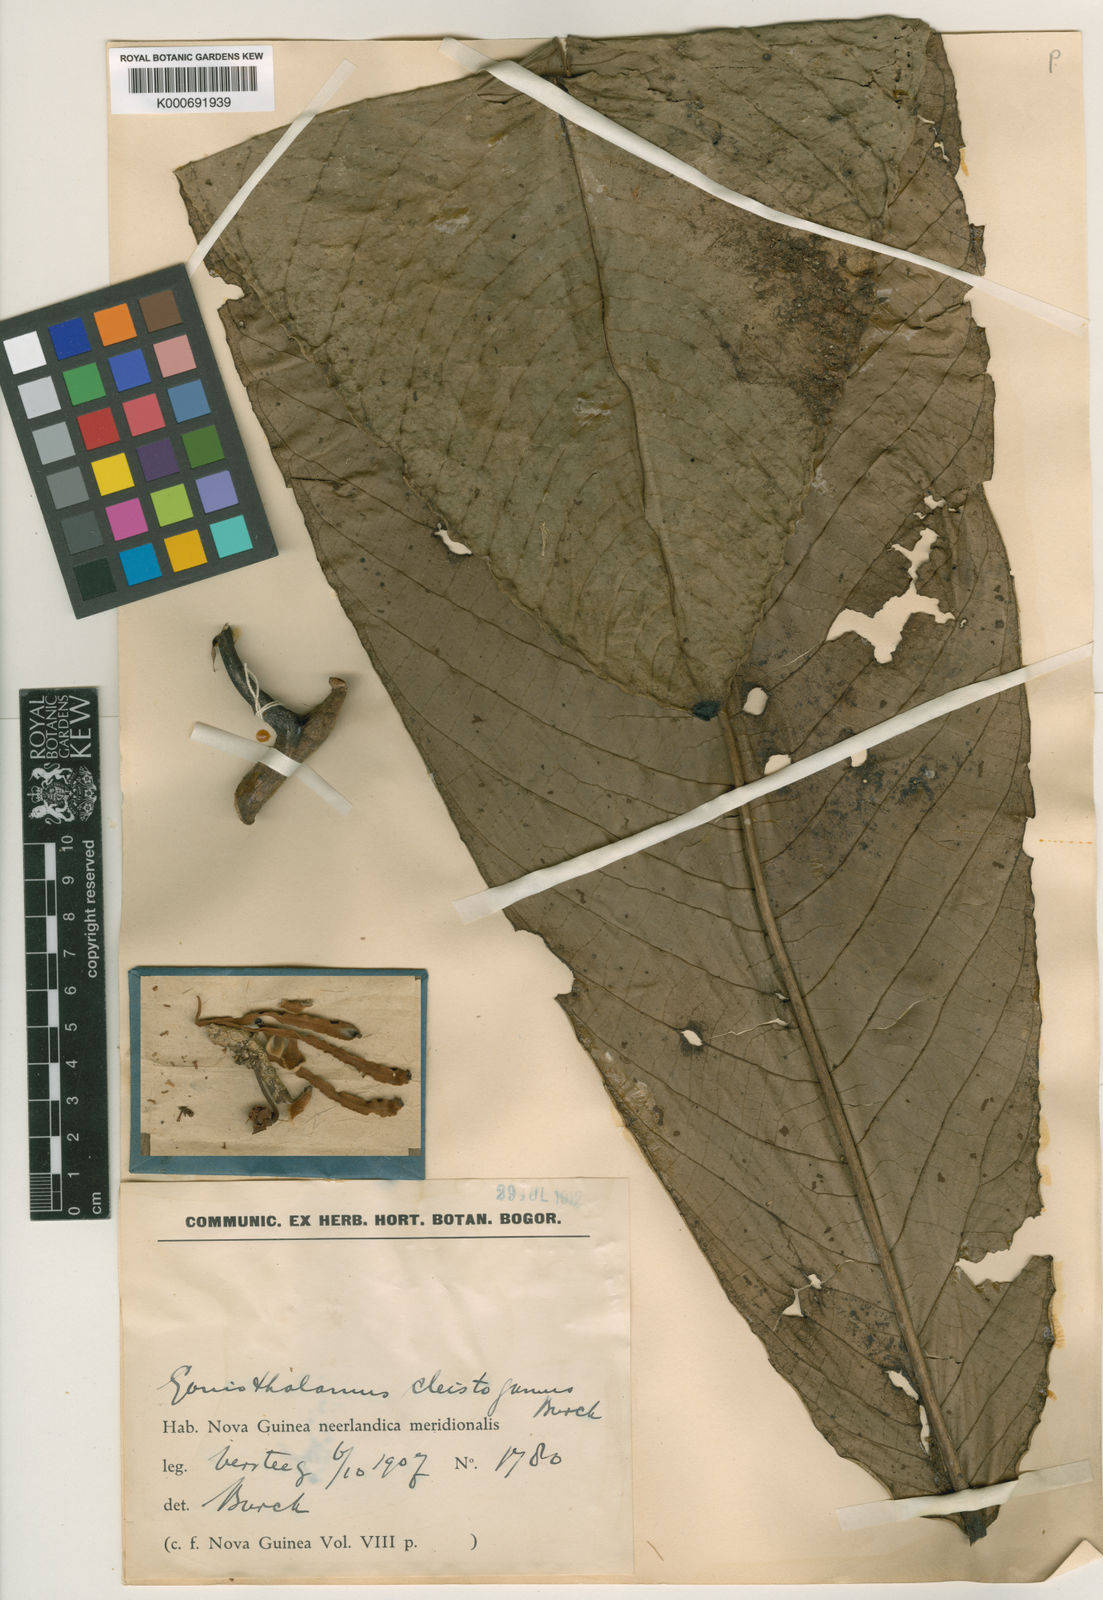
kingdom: Plantae
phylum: Tracheophyta
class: Magnoliopsida
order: Magnoliales
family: Annonaceae
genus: Goniothalamus
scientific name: Goniothalamus cleistogamus
